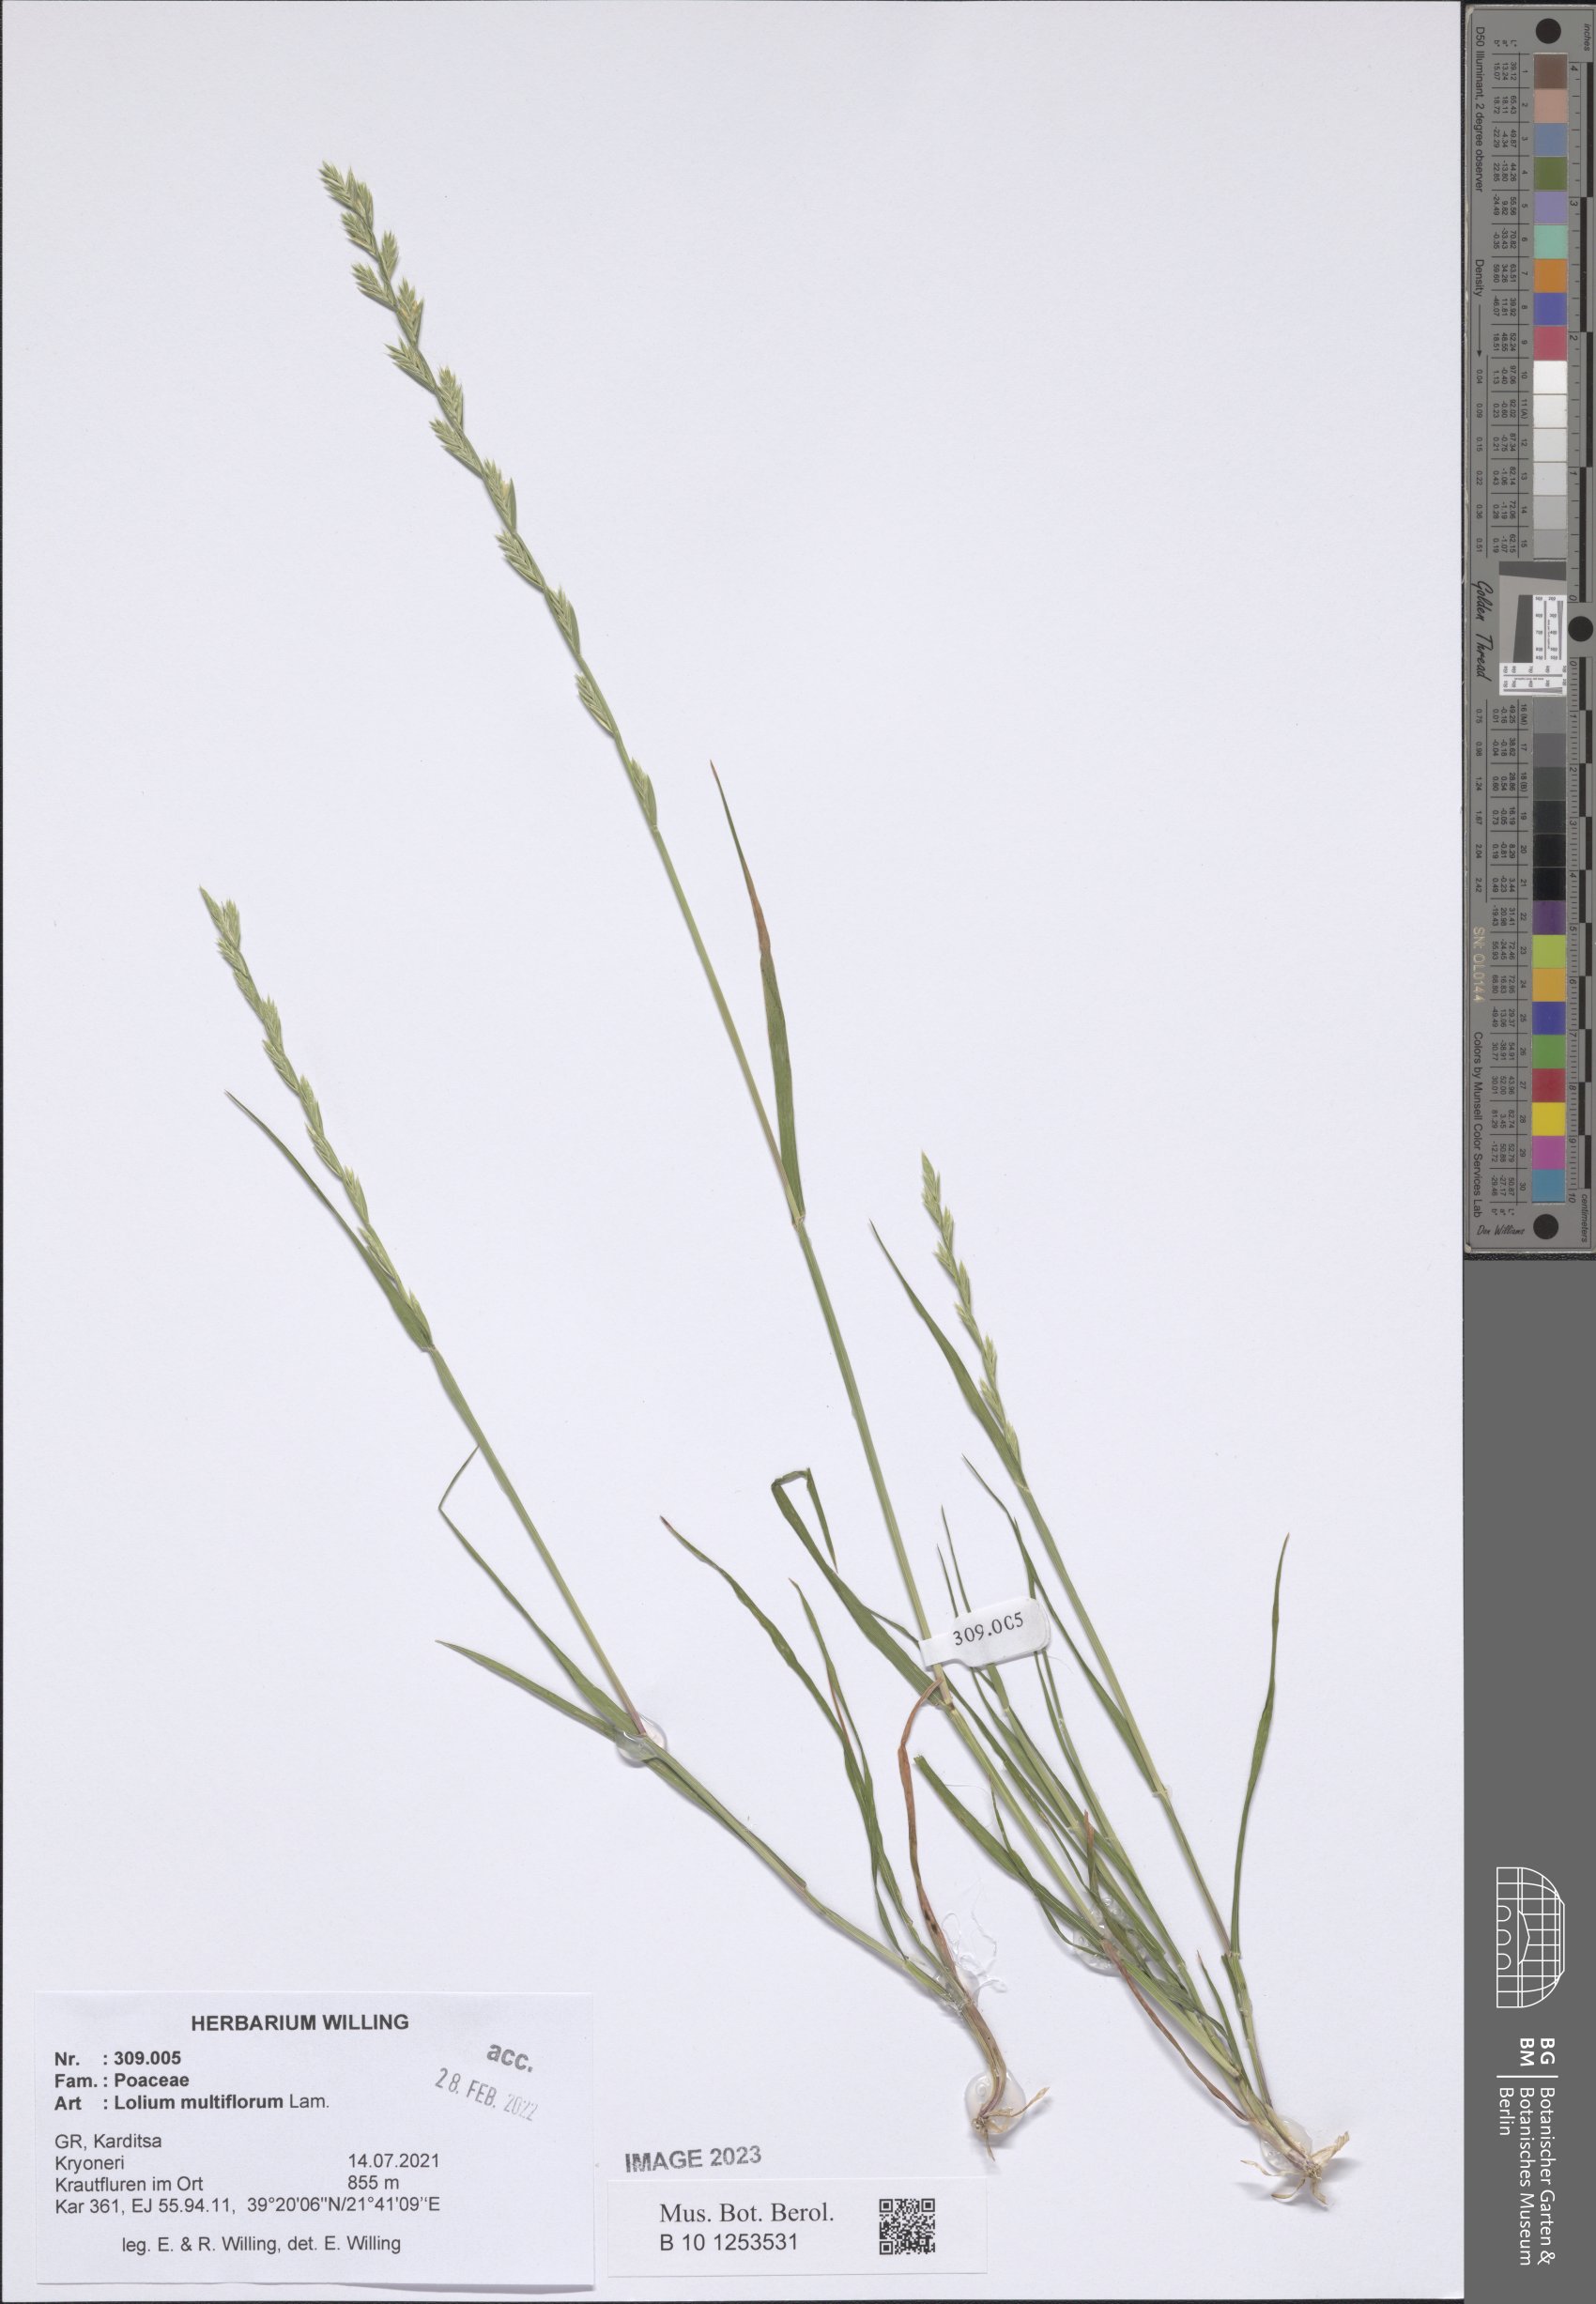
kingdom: Plantae
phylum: Tracheophyta
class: Liliopsida
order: Poales
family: Poaceae
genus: Lolium
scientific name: Lolium multiflorum
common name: Annual ryegrass
